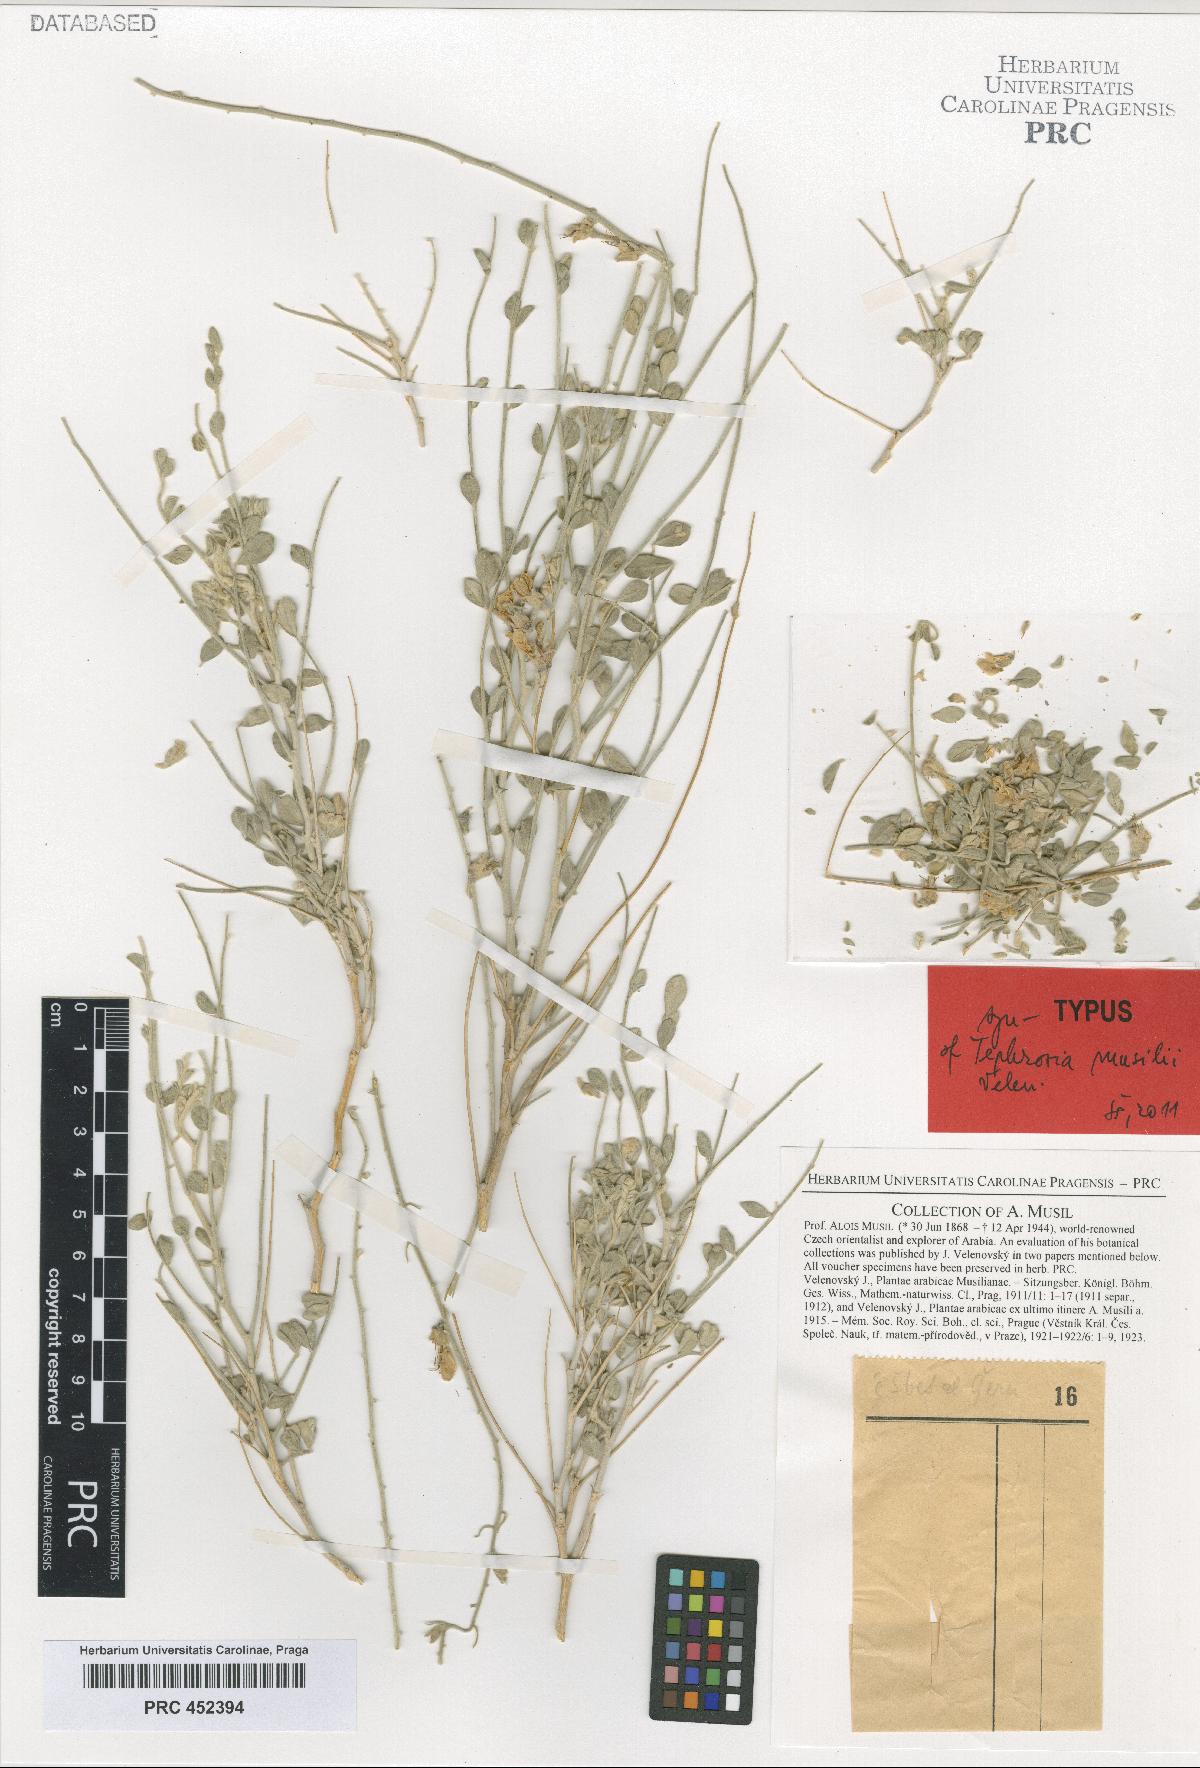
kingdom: Plantae
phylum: Tracheophyta
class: Magnoliopsida
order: Fabales
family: Fabaceae
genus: Tephrosia
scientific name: Tephrosia musilii
